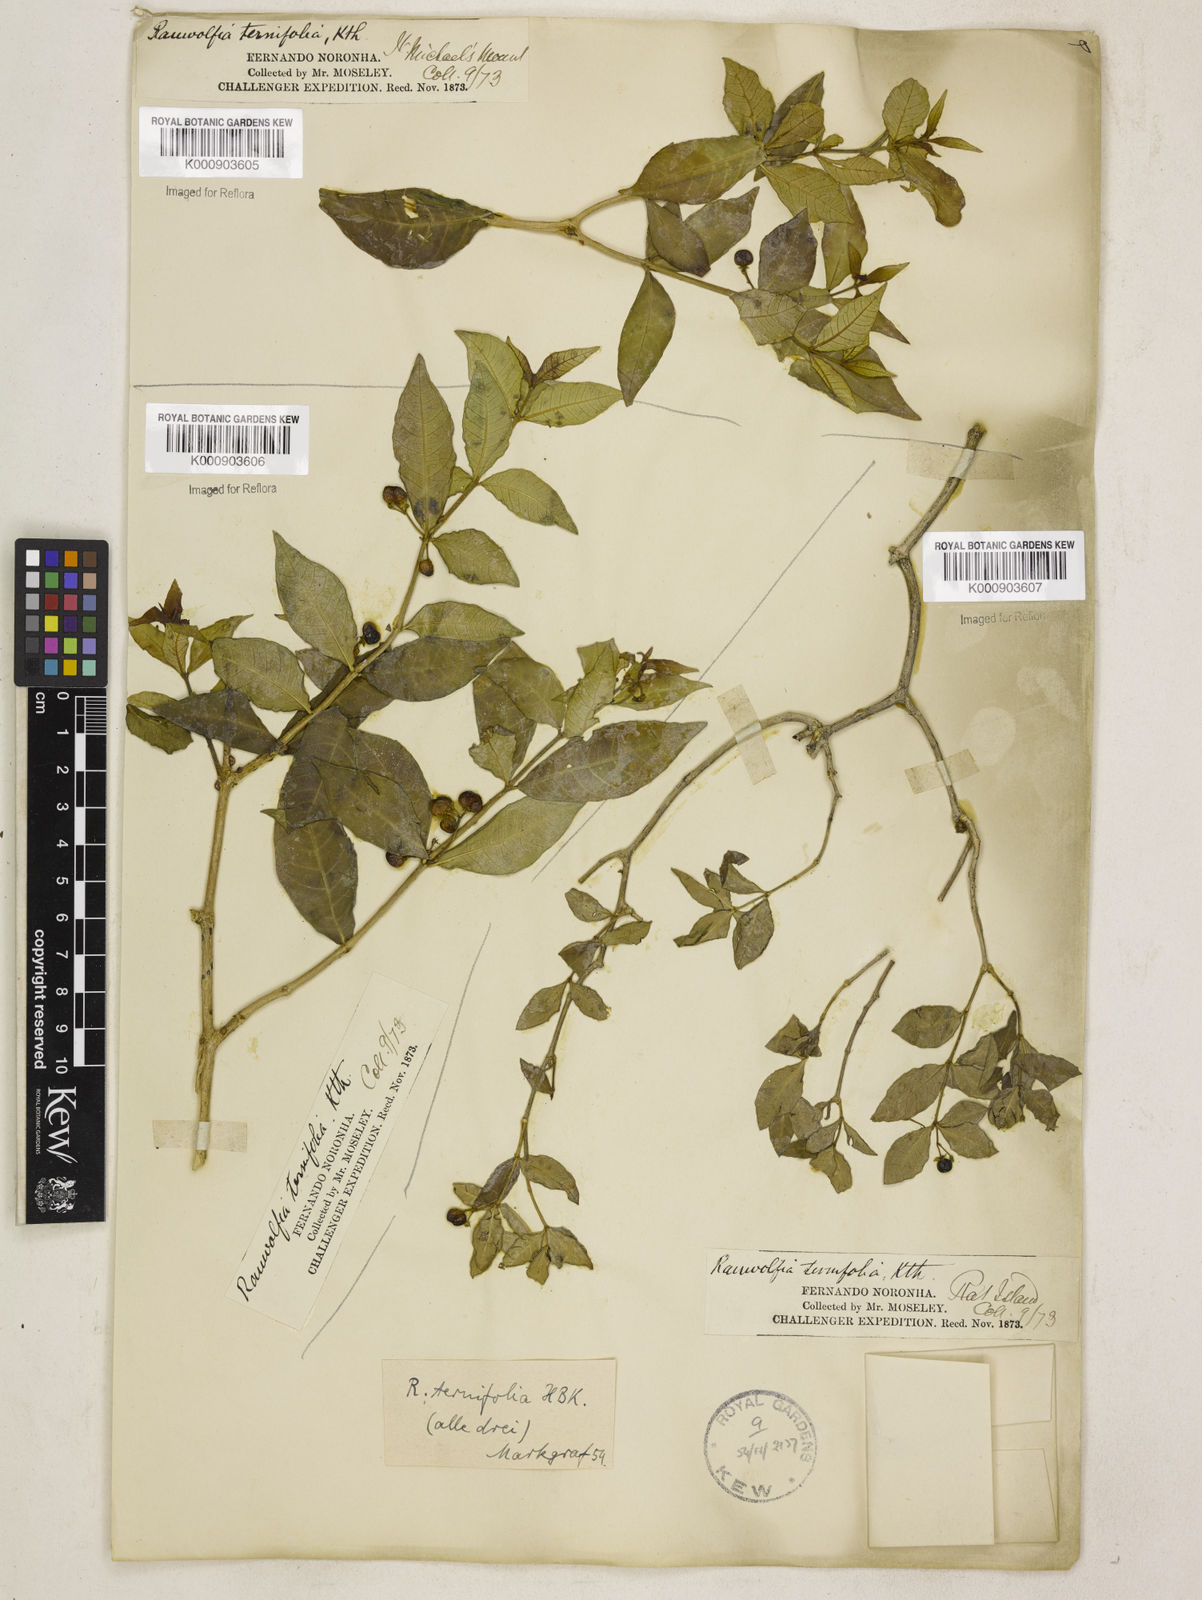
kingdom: Plantae
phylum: Tracheophyta
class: Magnoliopsida
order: Gentianales
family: Apocynaceae
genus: Rauvolfia
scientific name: Rauvolfia
